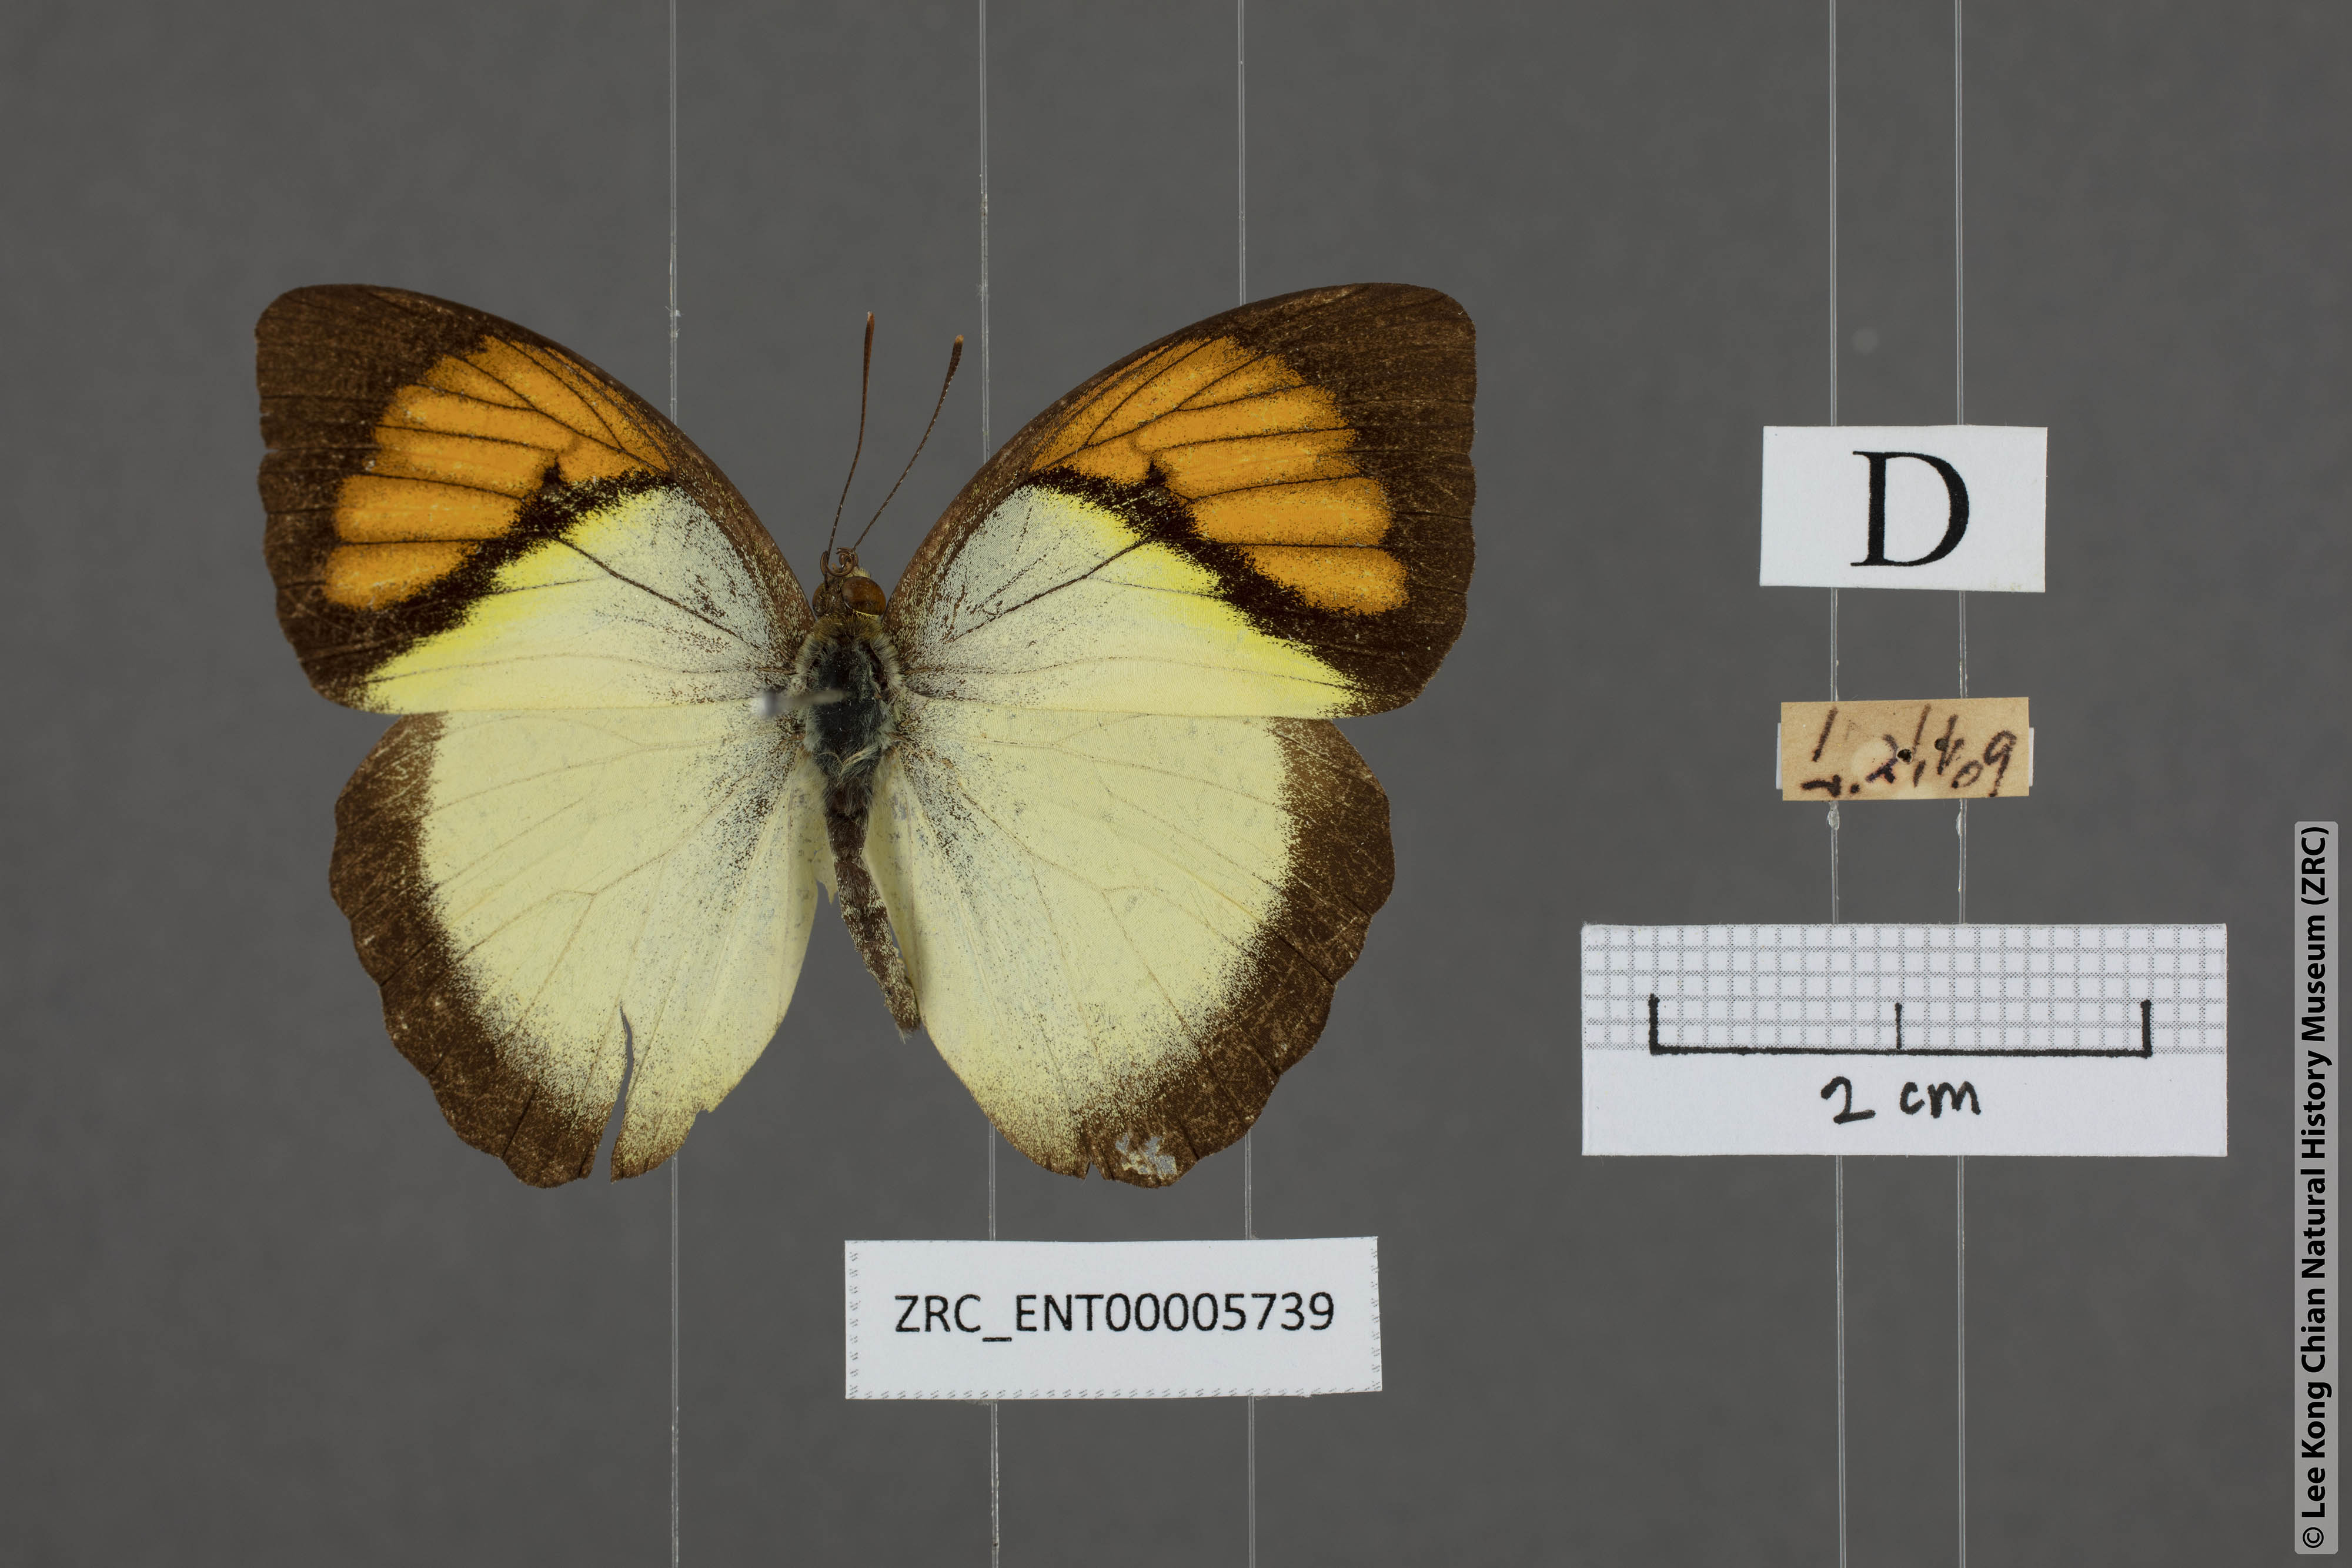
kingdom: Animalia
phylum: Arthropoda
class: Insecta
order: Lepidoptera
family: Pieridae
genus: Ixias
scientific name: Ixias pyrene
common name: Yellow orange tip
